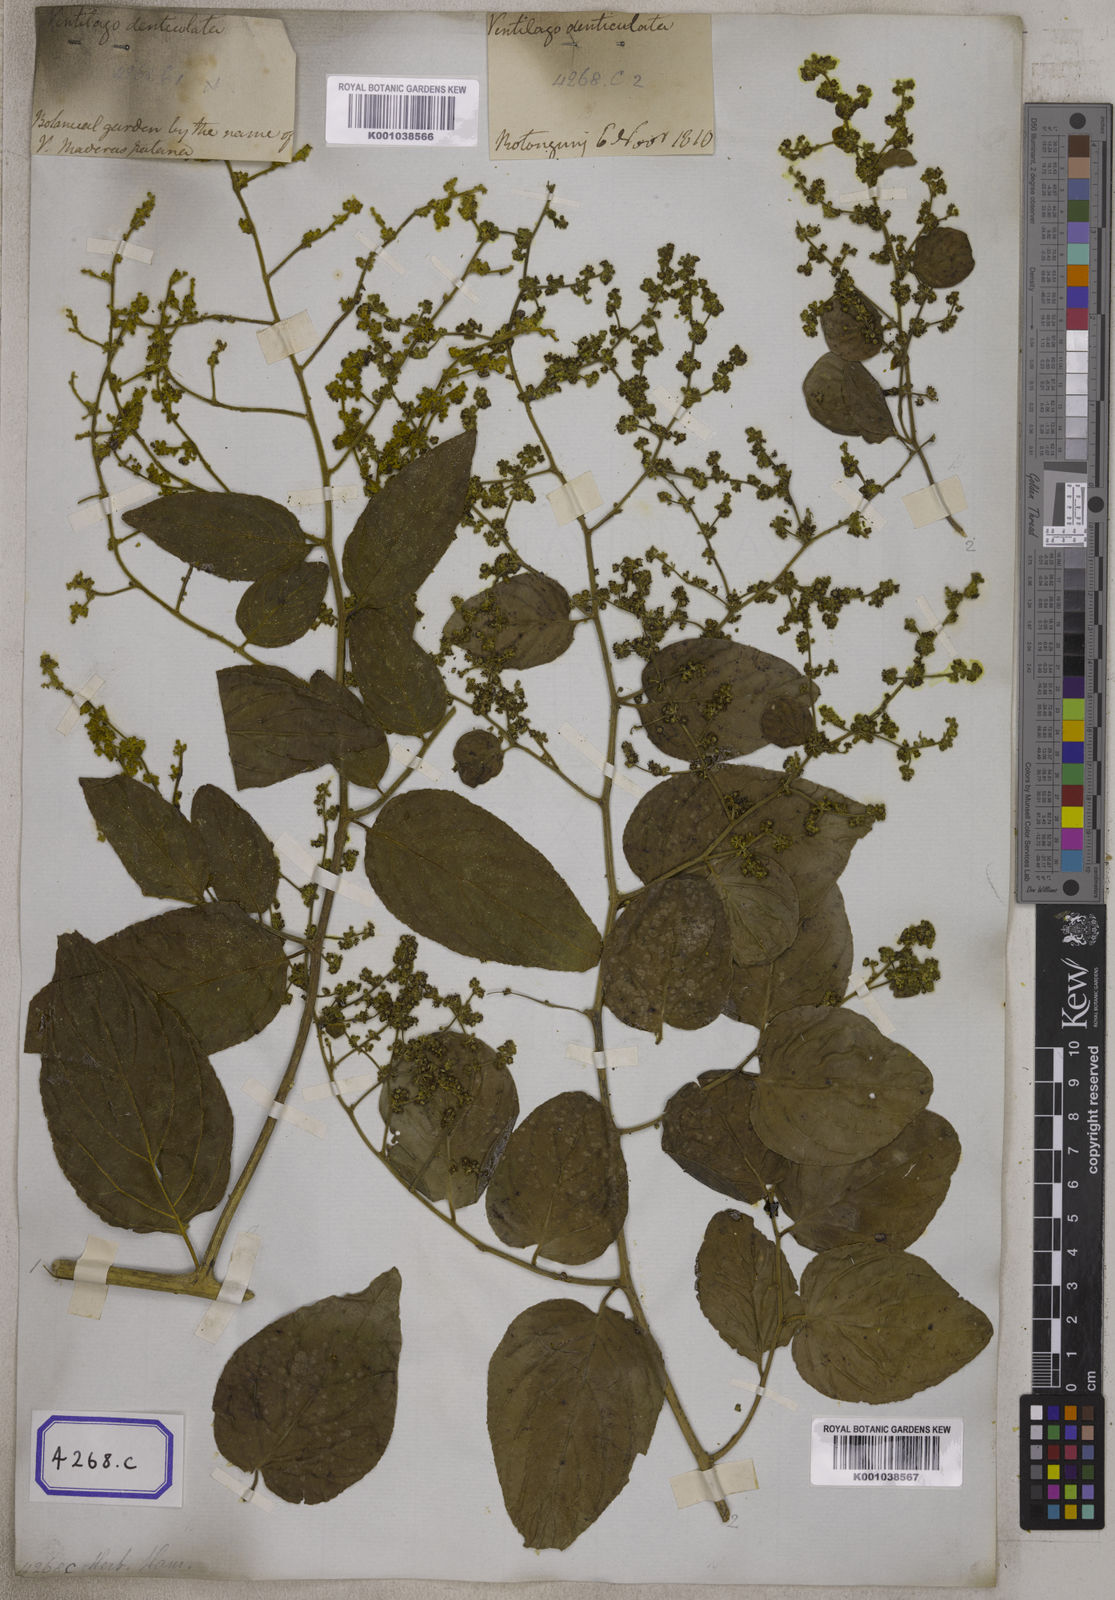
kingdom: Plantae
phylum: Tracheophyta
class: Magnoliopsida
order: Rosales
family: Rhamnaceae
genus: Ventilago
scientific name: Ventilago madraspatana
